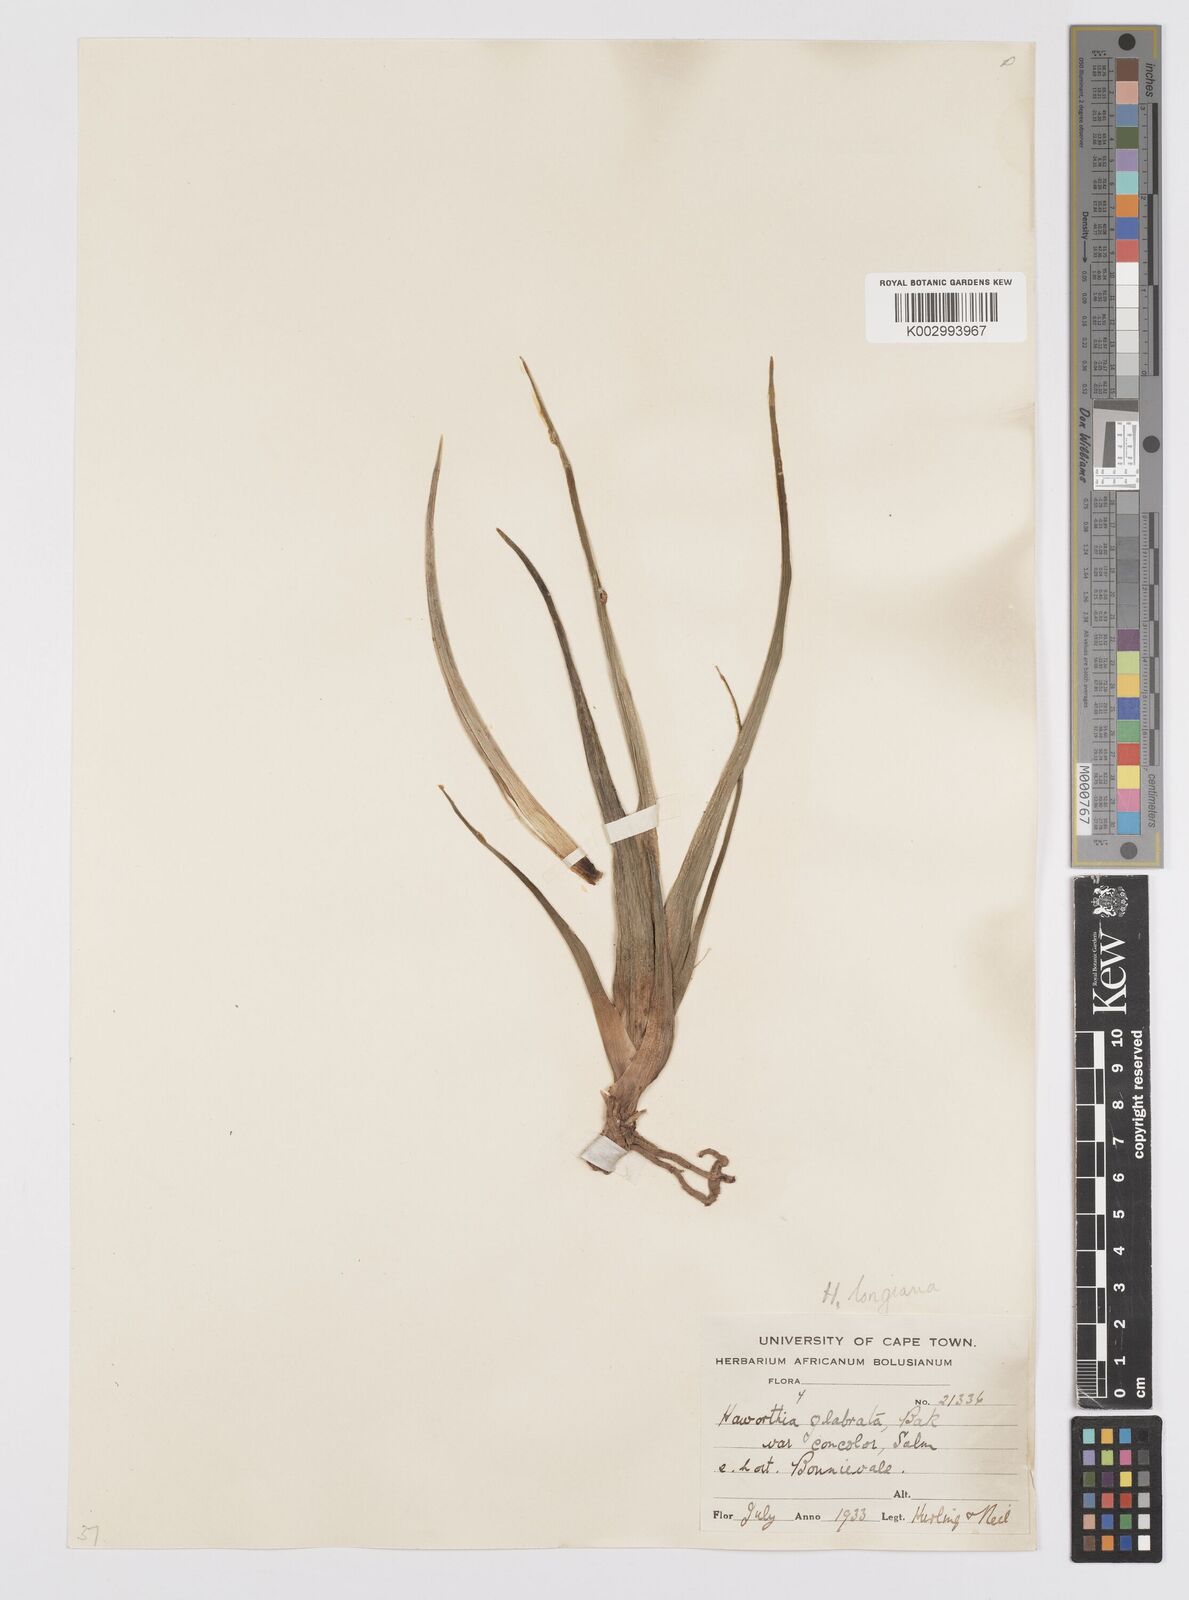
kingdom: Plantae
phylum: Tracheophyta
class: Liliopsida
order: Asparagales
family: Asphodelaceae
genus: Haworthiopsis
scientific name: Haworthiopsis longiana
